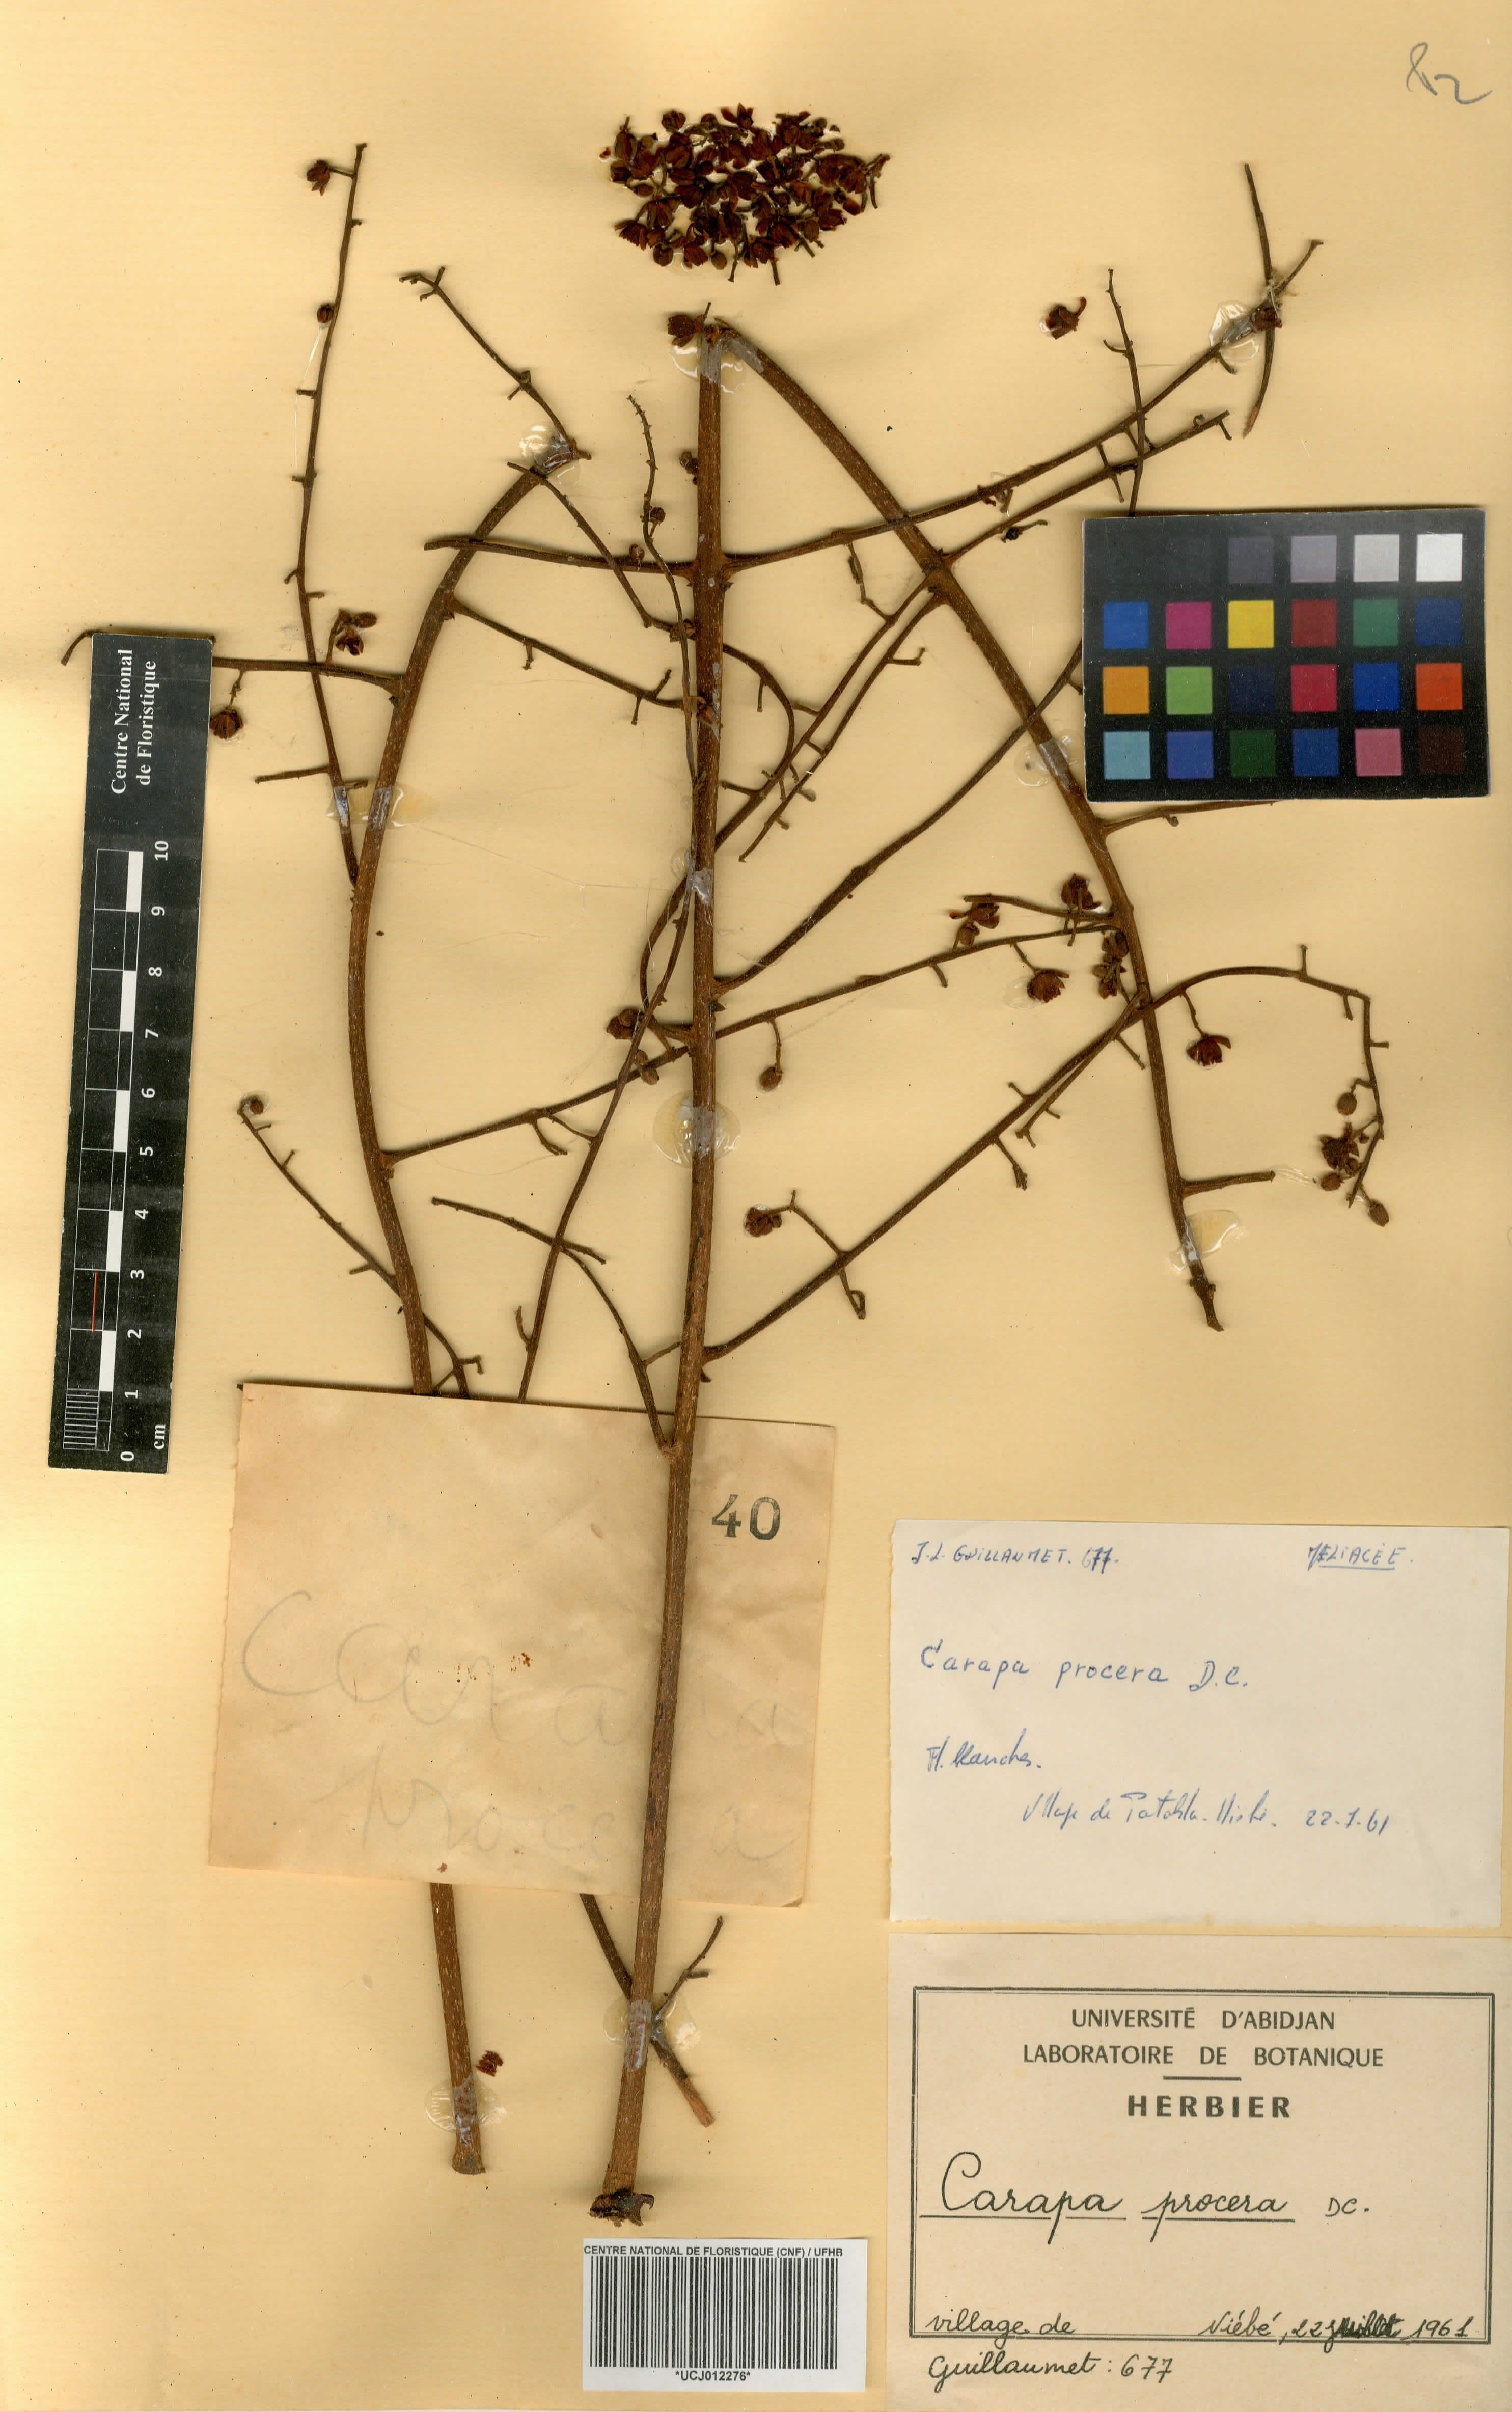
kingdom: Plantae
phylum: Tracheophyta
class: Magnoliopsida
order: Sapindales
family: Meliaceae
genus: Carapa
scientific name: Carapa procera
